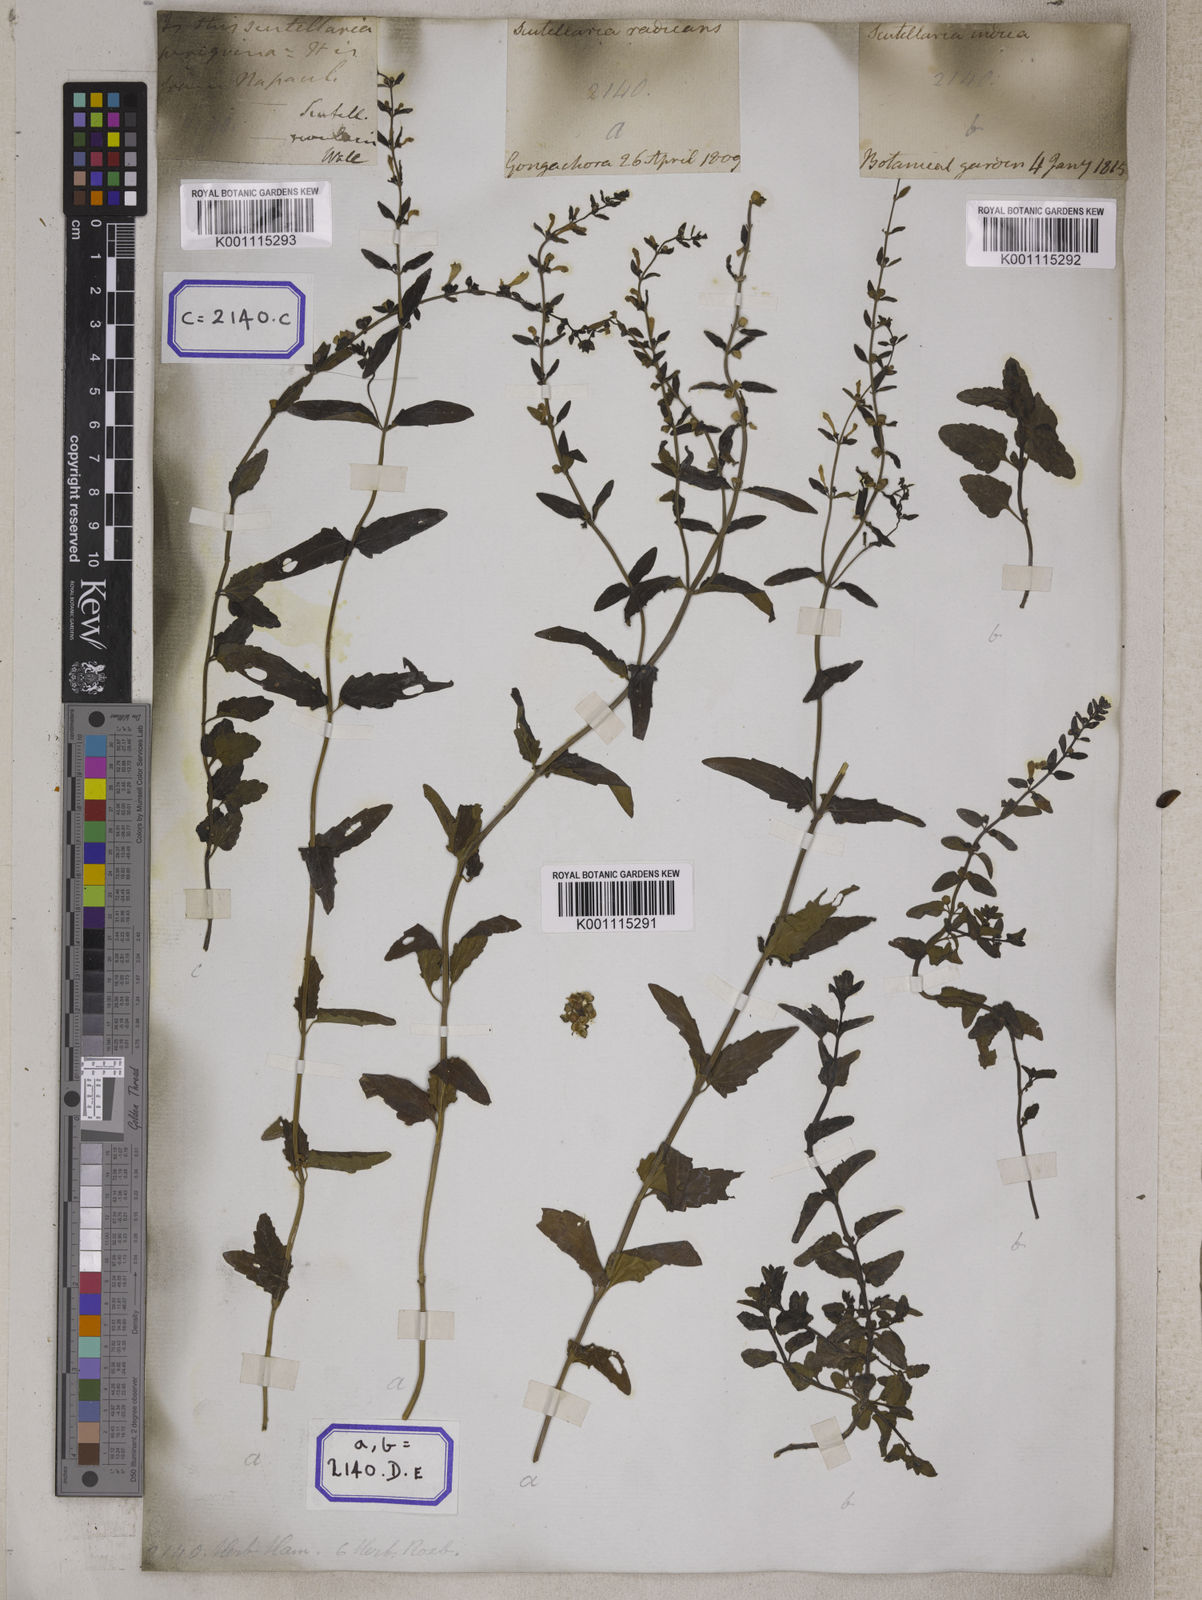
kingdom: Plantae
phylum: Tracheophyta
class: Magnoliopsida
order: Lamiales
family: Lamiaceae
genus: Scutellaria
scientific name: Scutellaria
